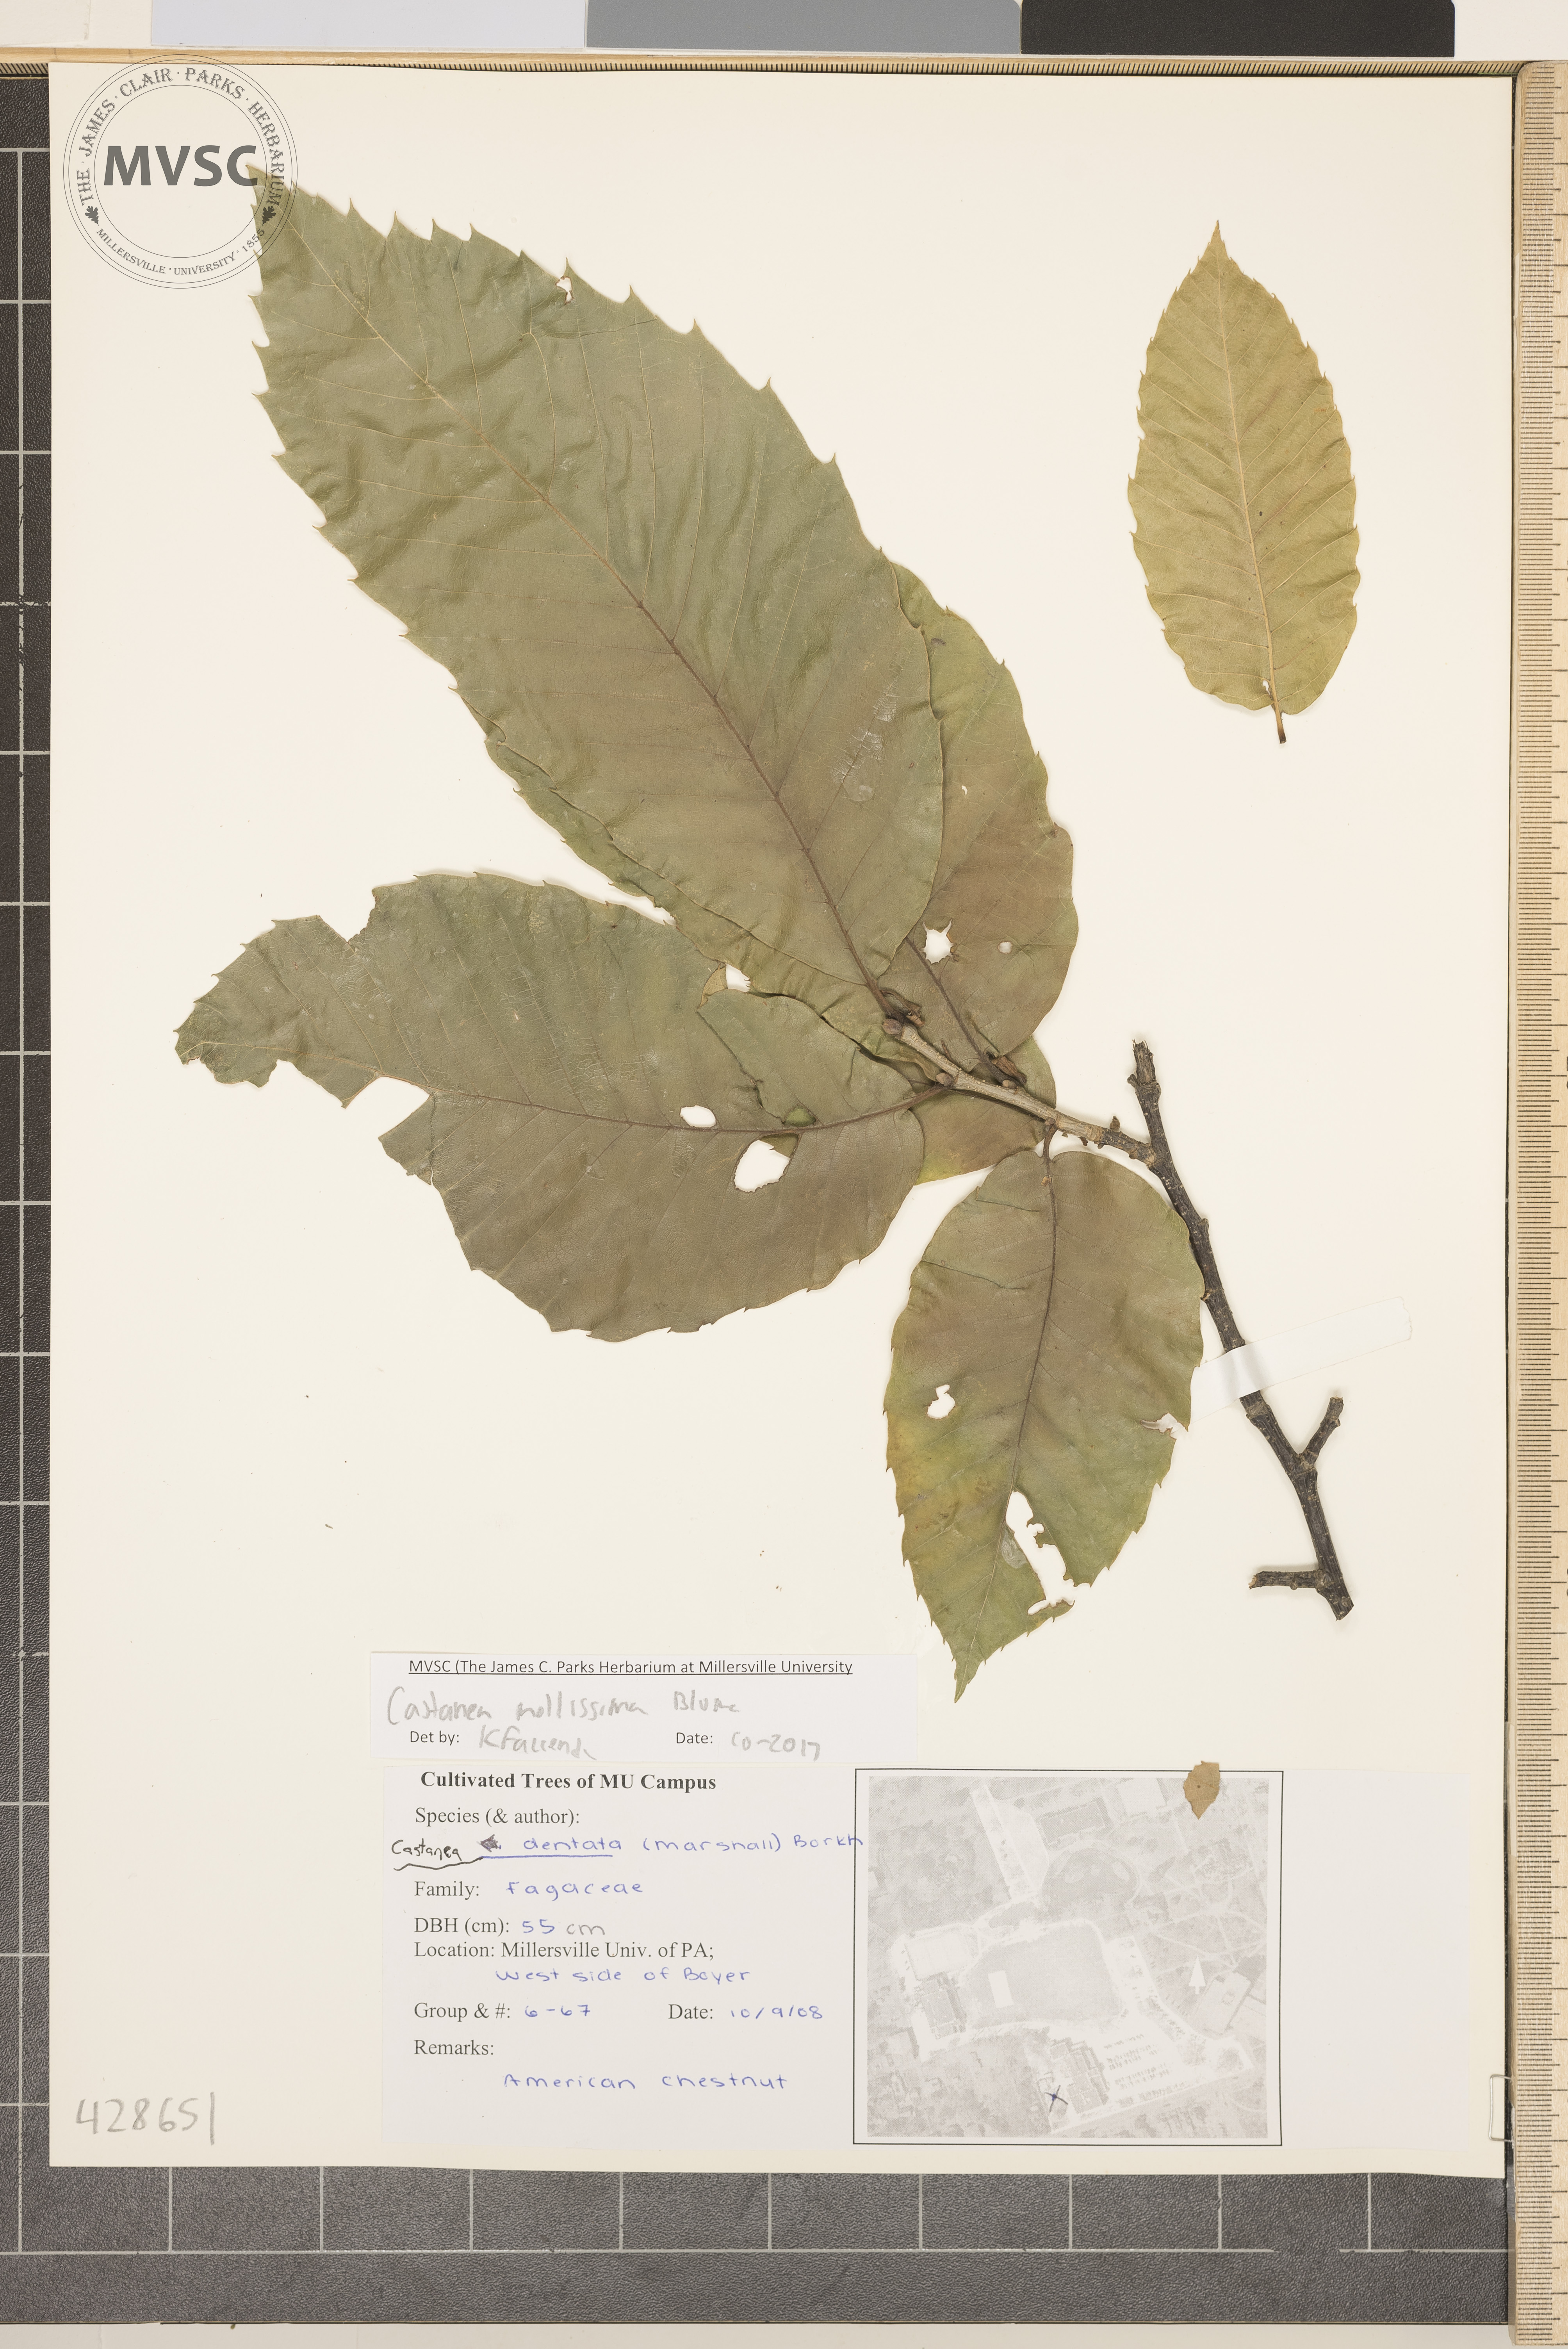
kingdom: Plantae
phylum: Tracheophyta
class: Magnoliopsida
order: Fagales
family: Fagaceae
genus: Castanea
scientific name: Castanea mollissima
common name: Chinese chestnut
